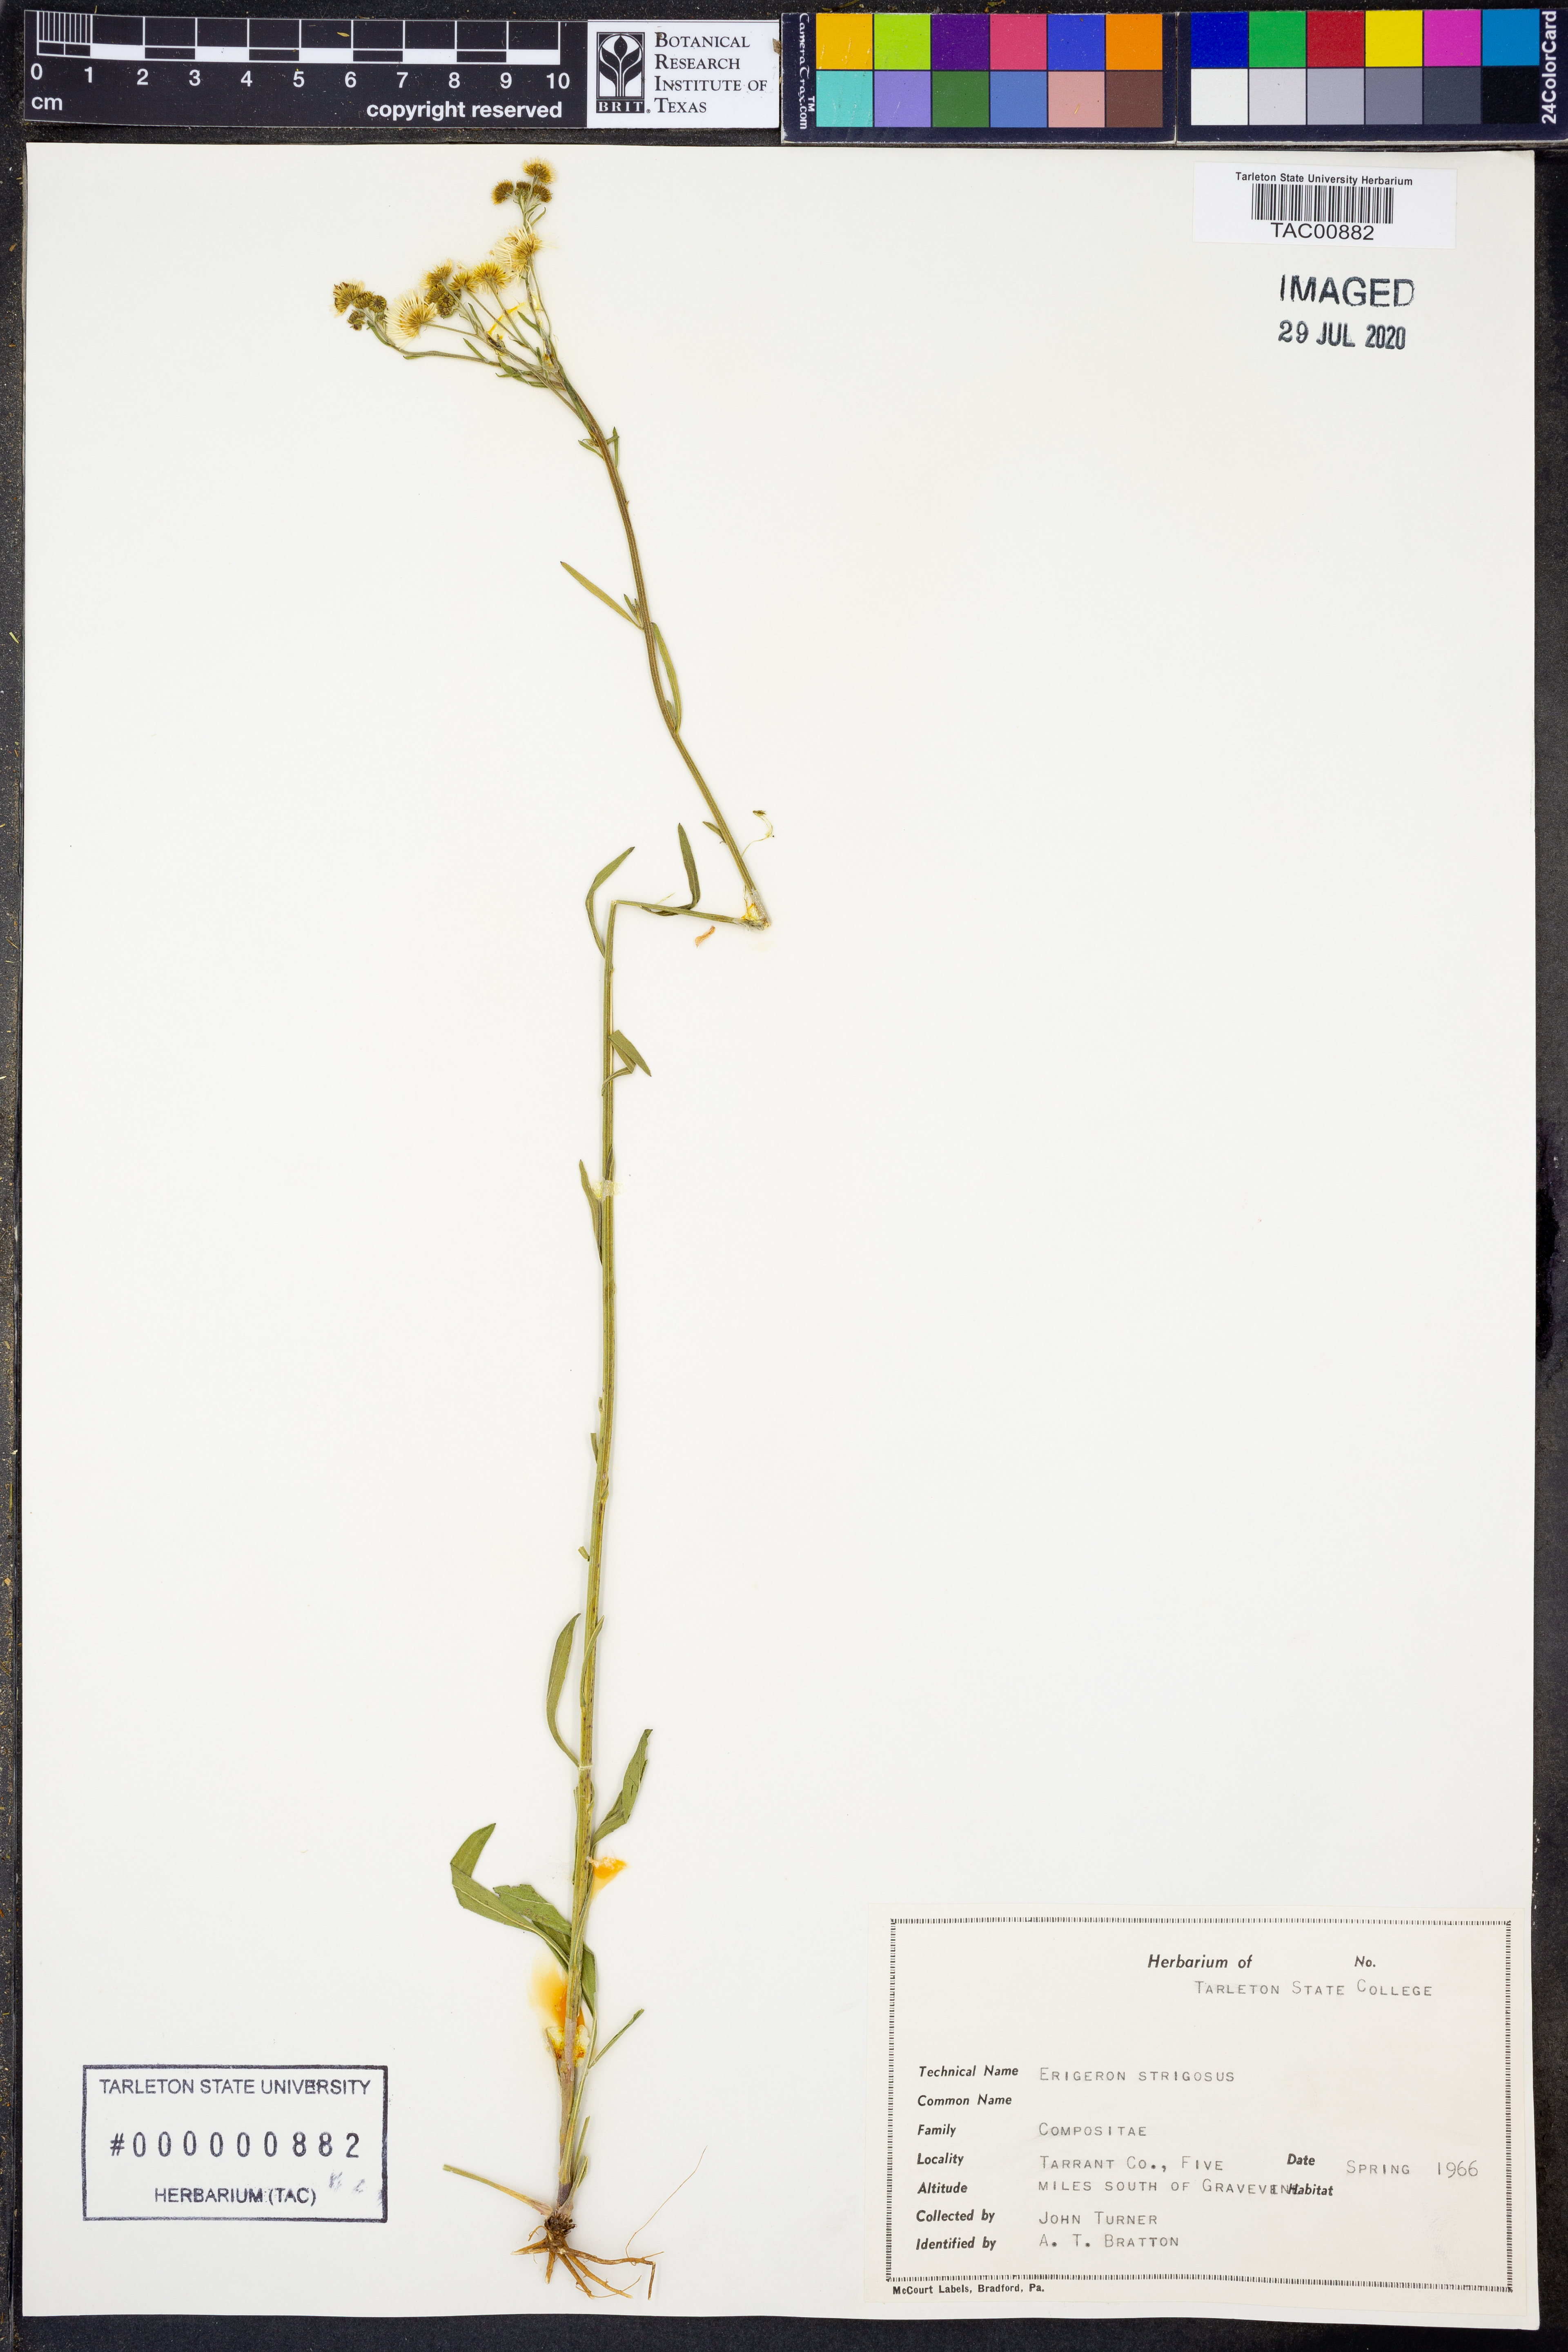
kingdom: Plantae
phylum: Tracheophyta
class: Magnoliopsida
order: Asterales
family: Asteraceae
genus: Erigeron
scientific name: Erigeron strigosus
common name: Common eastern fleabane
